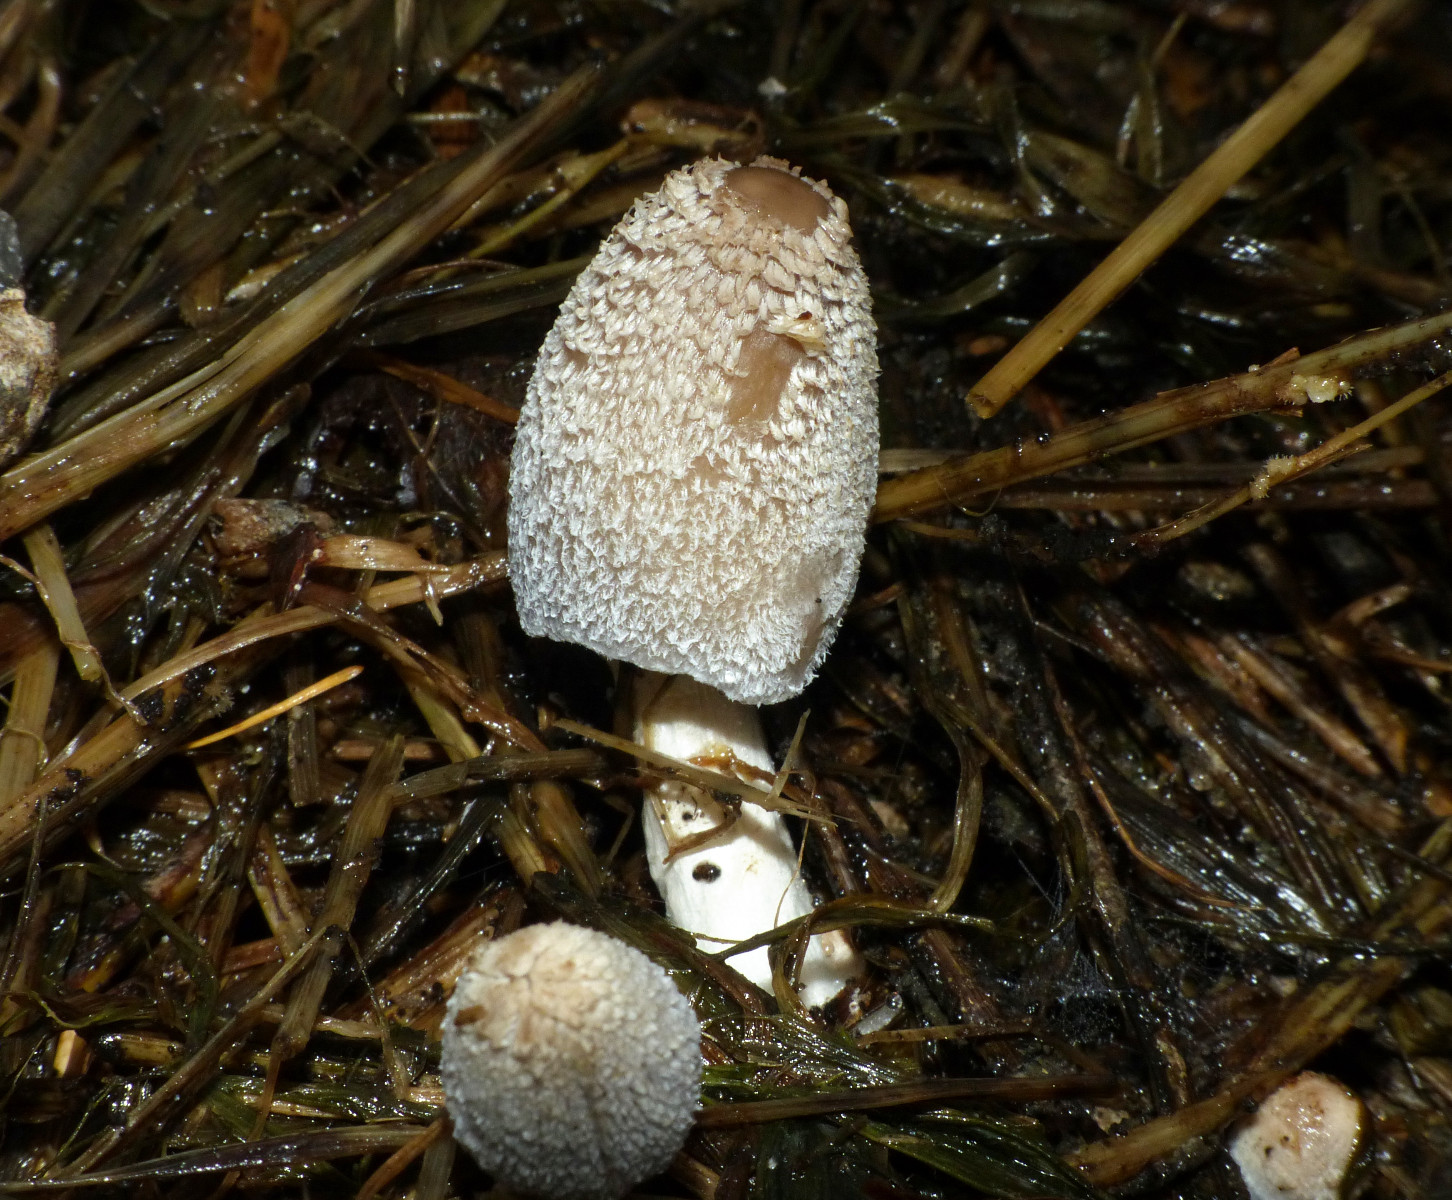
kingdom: Fungi
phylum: Basidiomycota
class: Agaricomycetes
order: Agaricales
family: Psathyrellaceae
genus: Coprinopsis
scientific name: Coprinopsis cinerea
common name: mødding-blækhat
